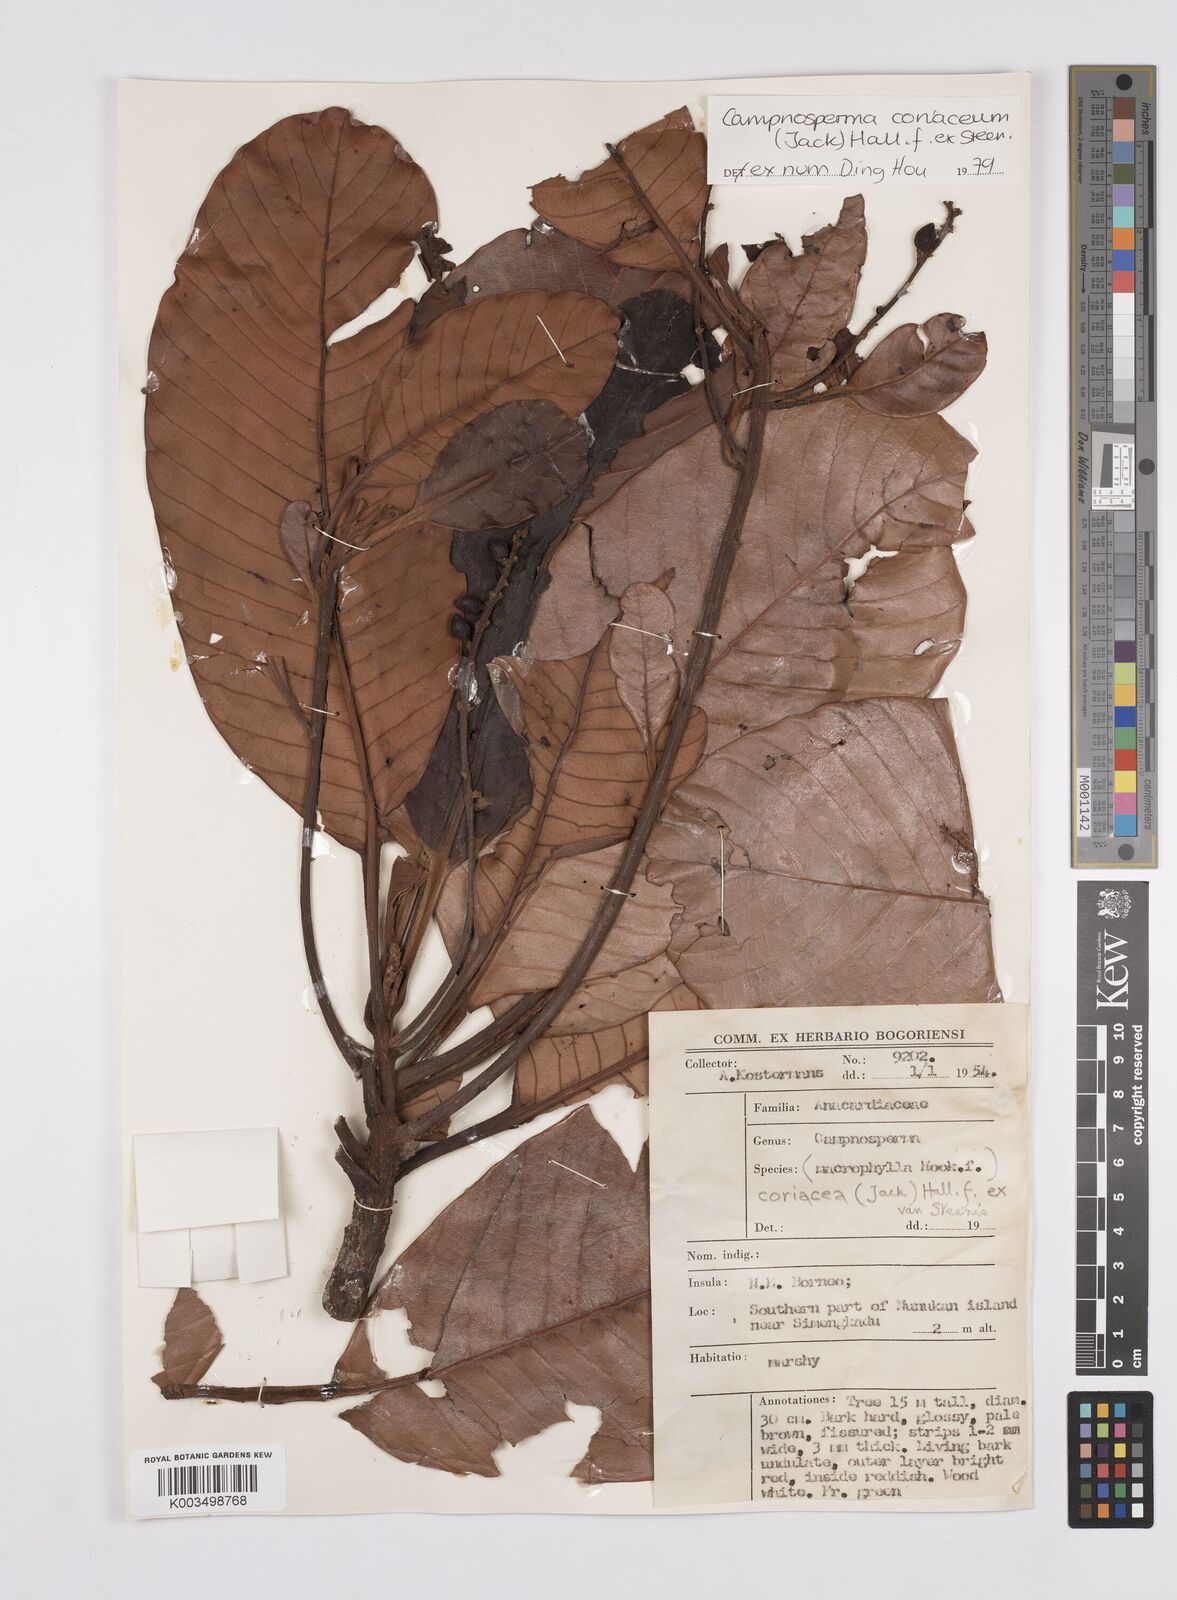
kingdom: Plantae
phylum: Tracheophyta
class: Magnoliopsida
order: Sapindales
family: Anacardiaceae
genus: Campnosperma
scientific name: Campnosperma coriaceum
